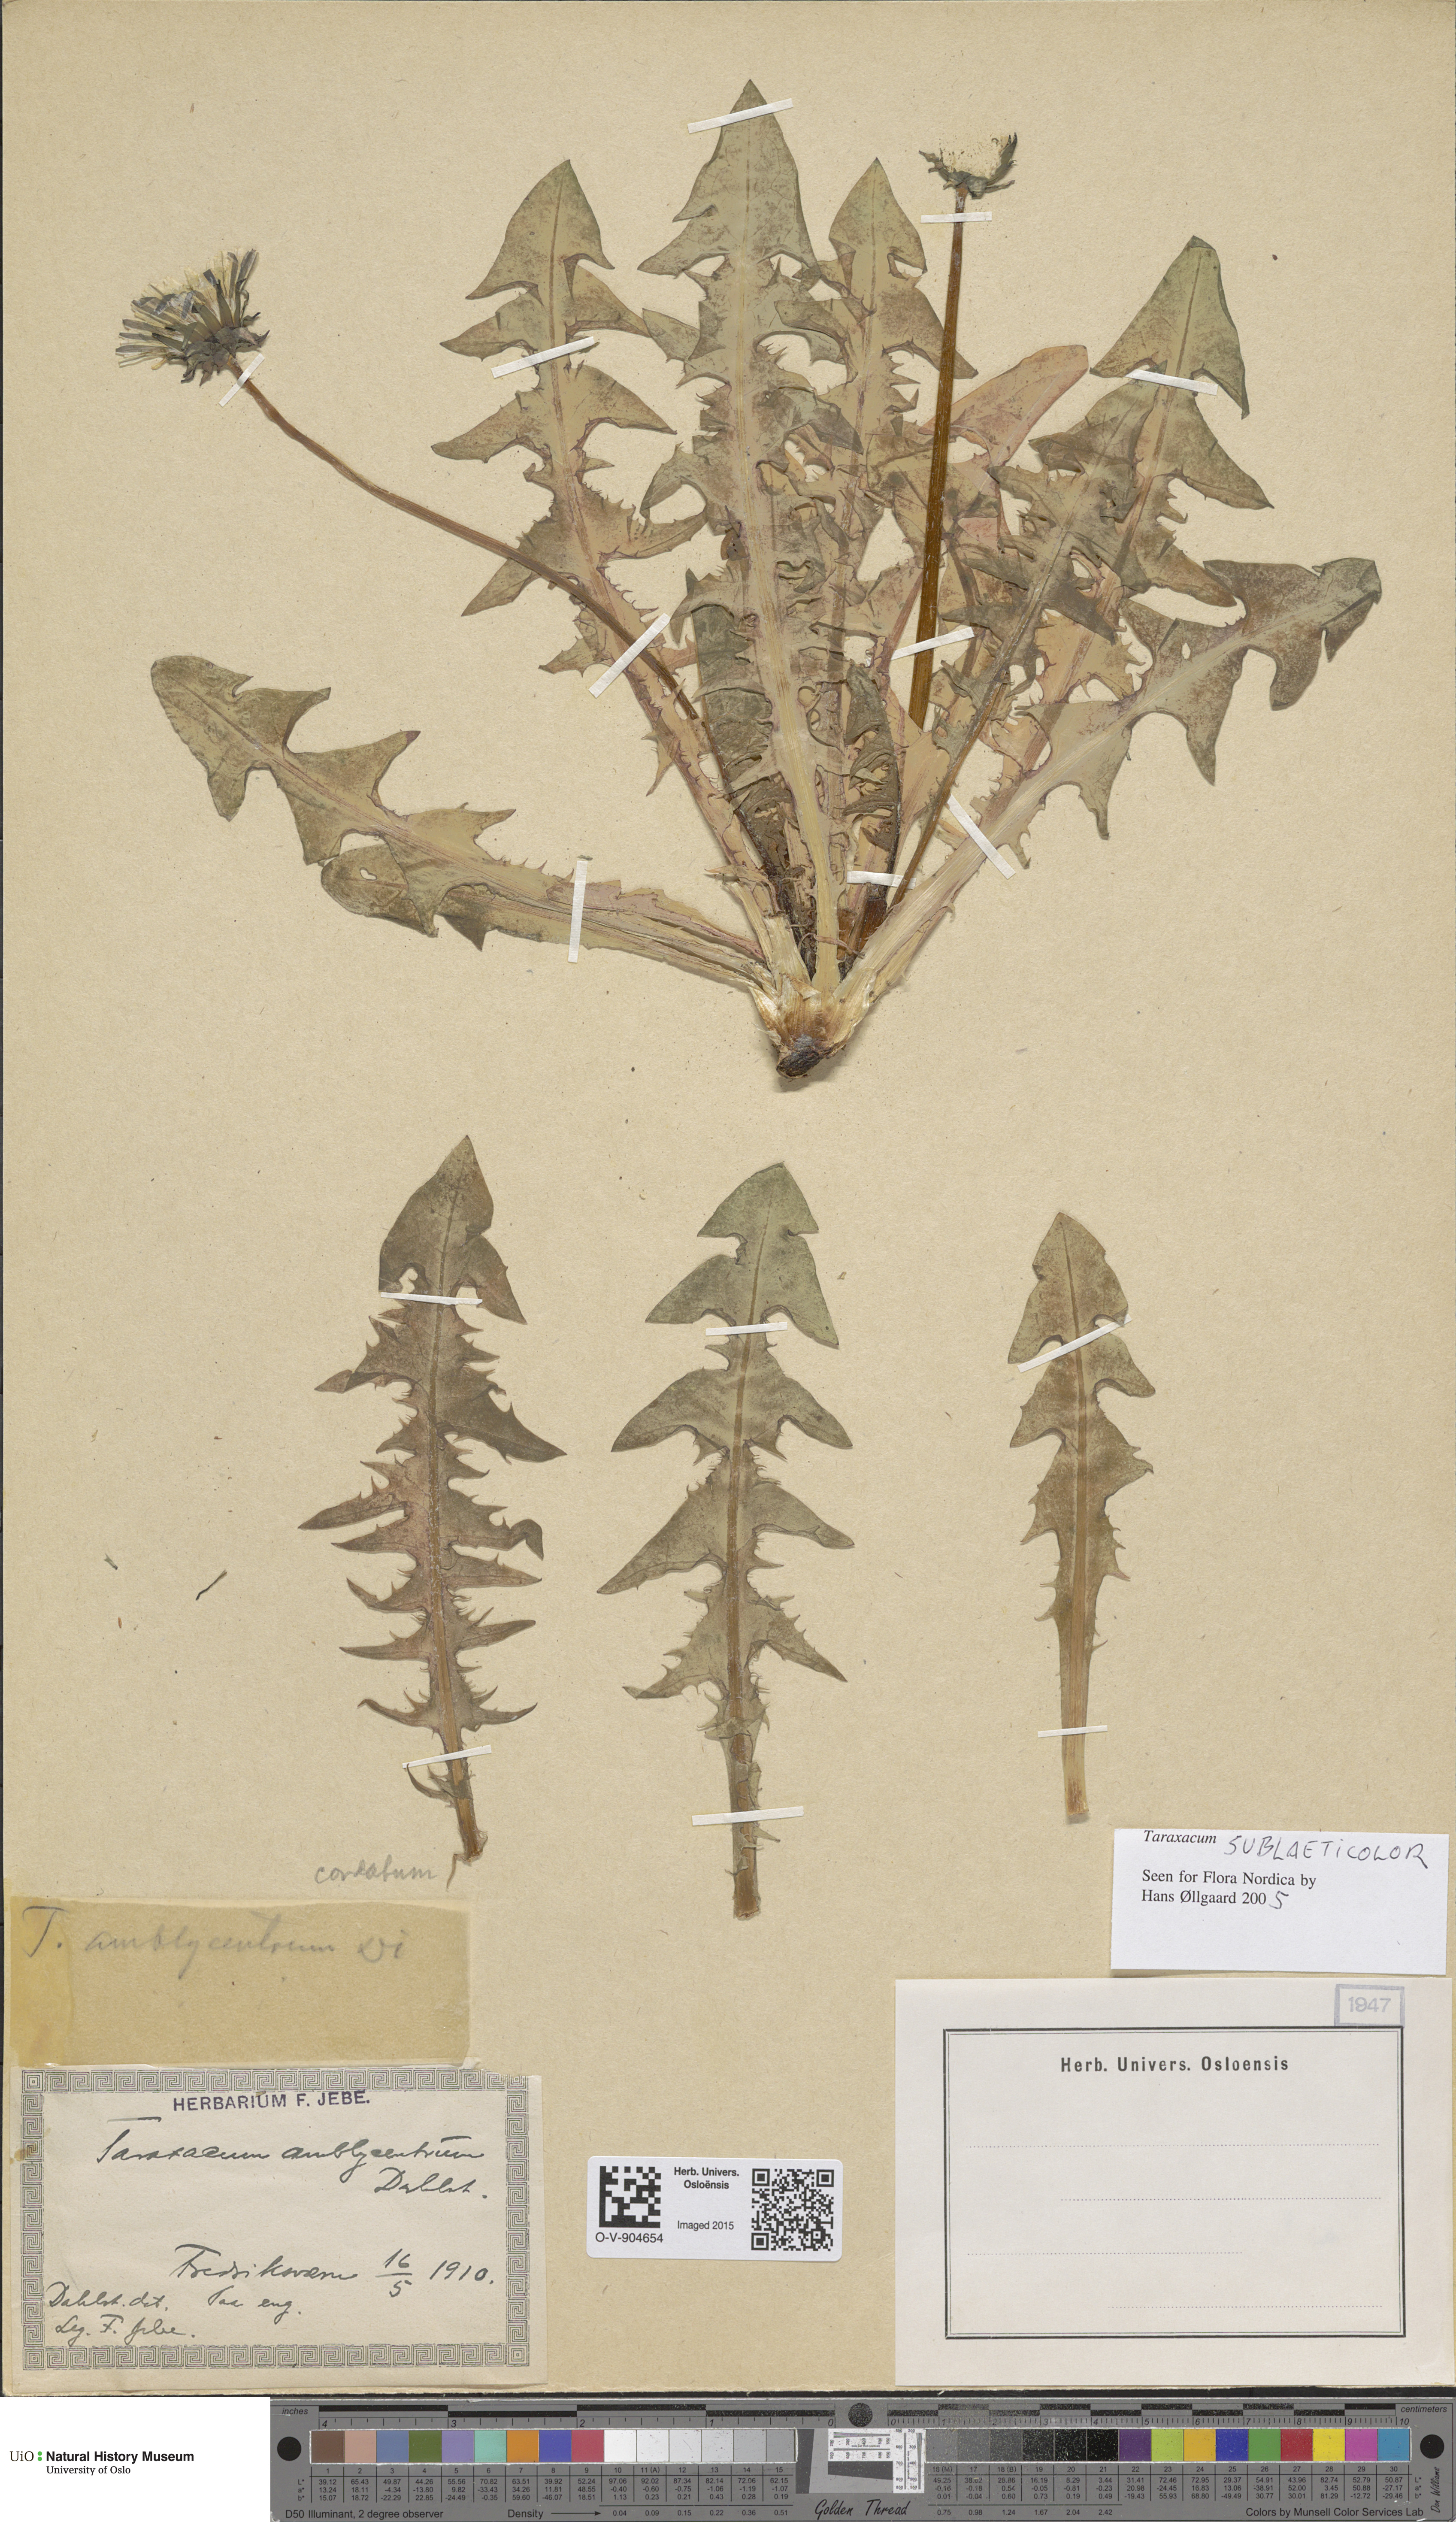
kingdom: Plantae
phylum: Tracheophyta
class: Magnoliopsida
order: Asterales
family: Asteraceae
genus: Taraxacum
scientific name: Taraxacum cordatum
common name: Entire-lobed dandelion
